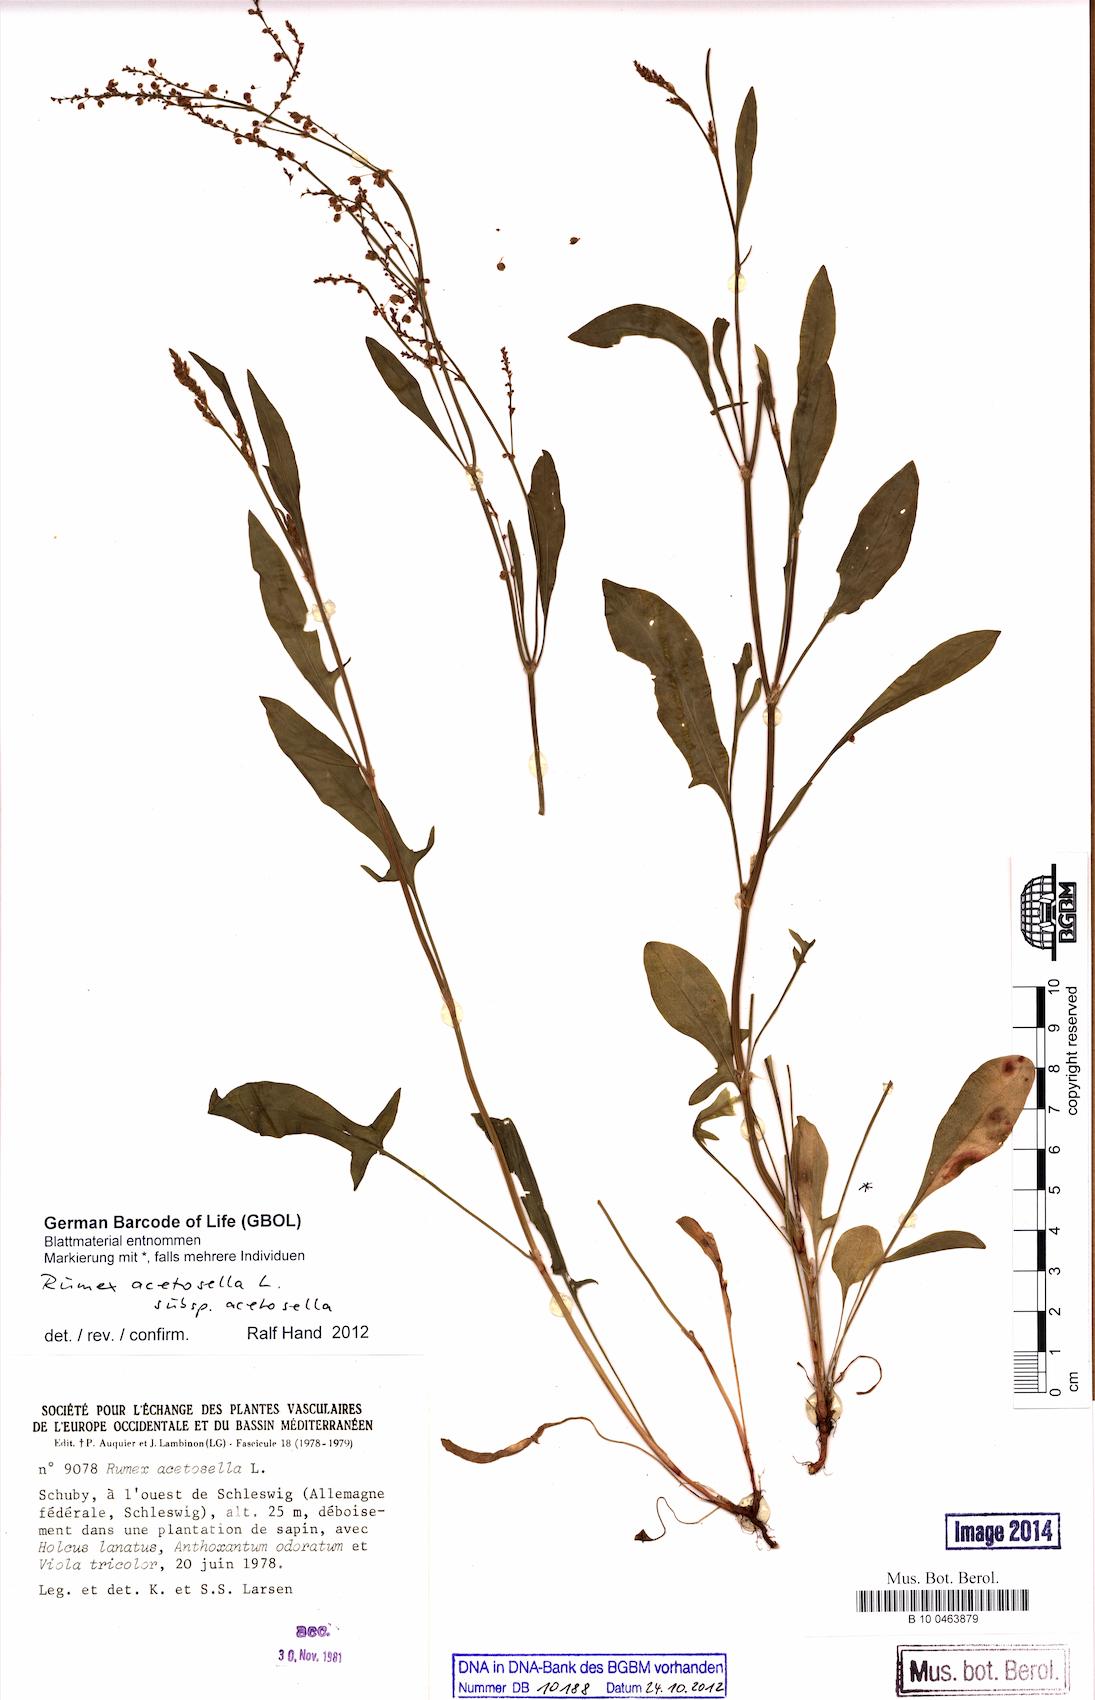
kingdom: Plantae
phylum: Tracheophyta
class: Magnoliopsida
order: Caryophyllales
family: Polygonaceae
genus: Rumex
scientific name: Rumex acetosella
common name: Common sheep sorrel
